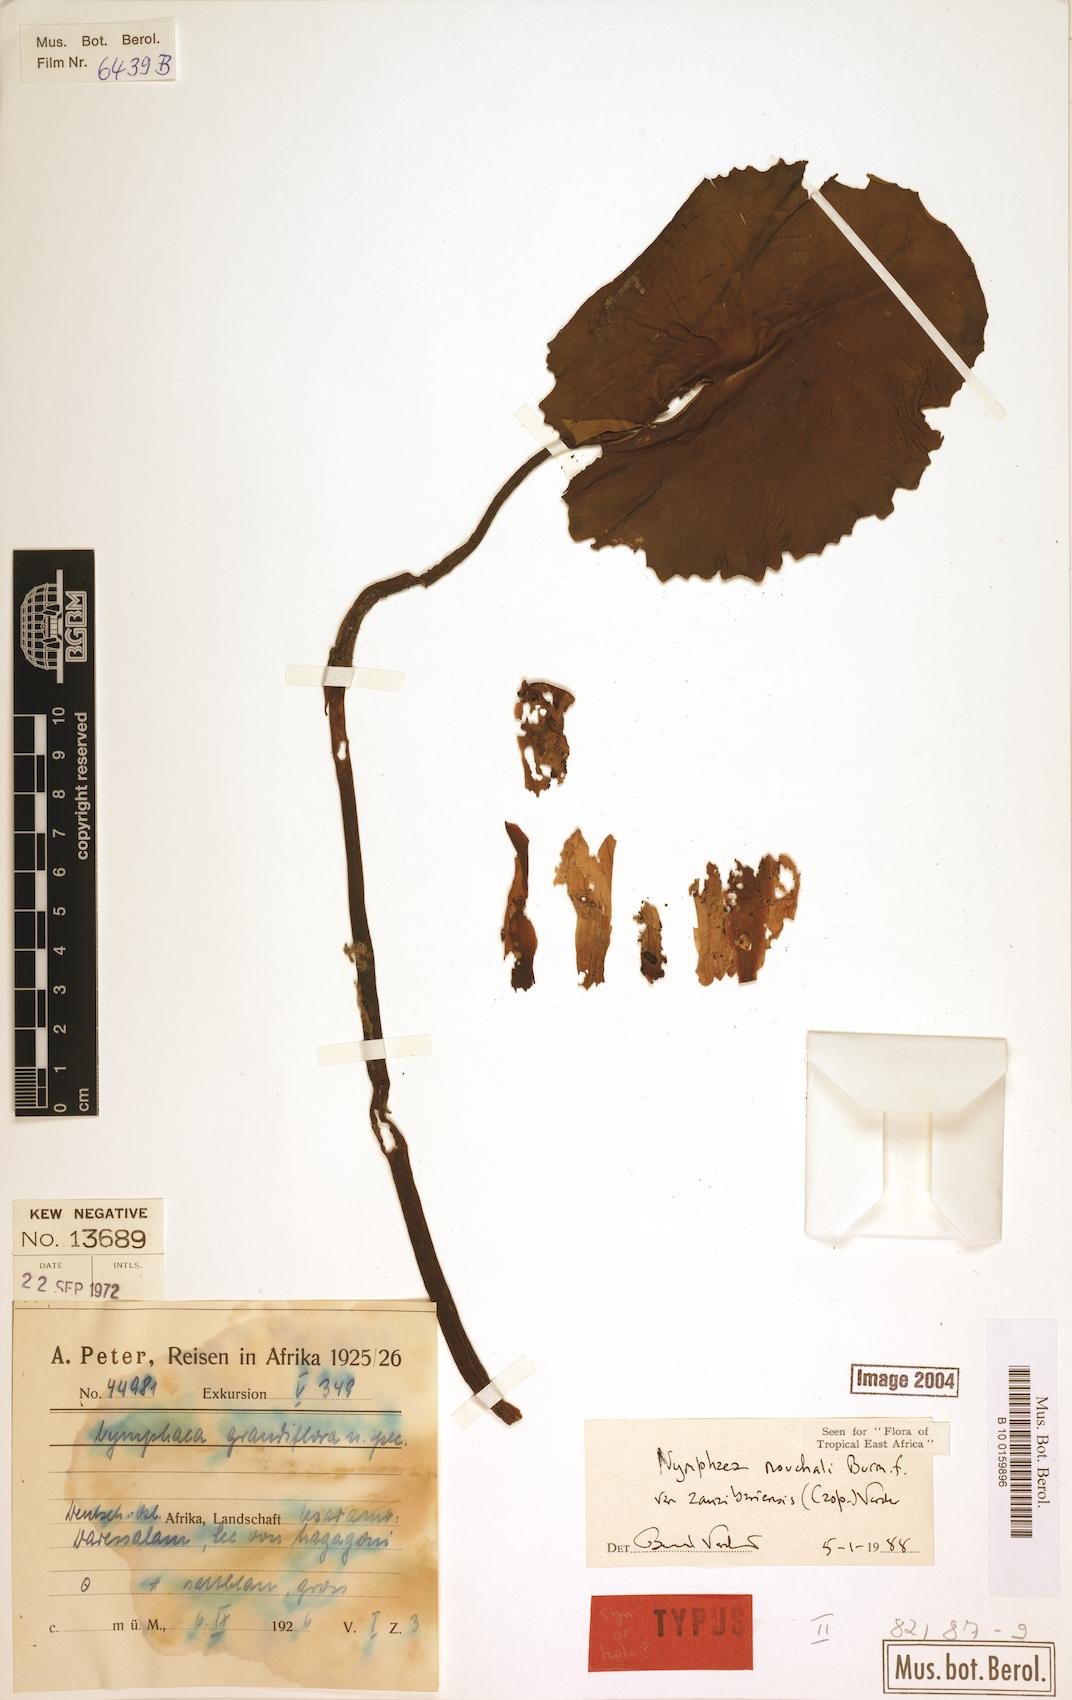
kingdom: Plantae
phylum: Tracheophyta
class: Magnoliopsida
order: Nymphaeales
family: Nymphaeaceae
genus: Nymphaea
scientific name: Nymphaea nouchali
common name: Blue lotus
